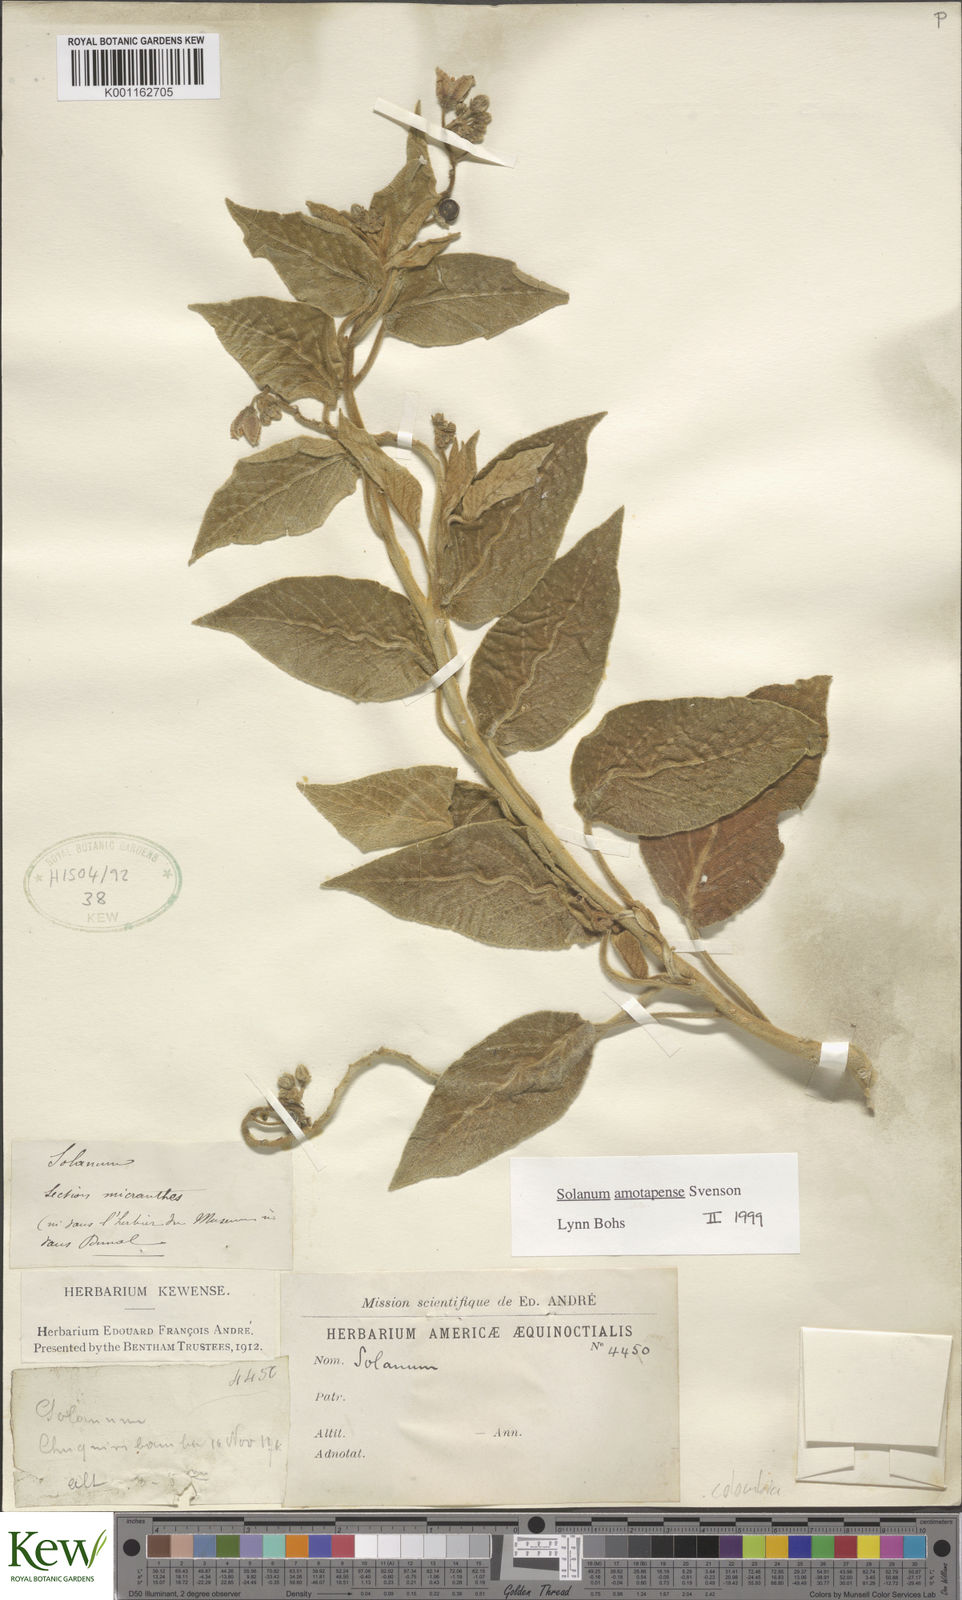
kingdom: Plantae
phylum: Tracheophyta
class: Magnoliopsida
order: Solanales
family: Solanaceae
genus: Solanum
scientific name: Solanum amotapense
